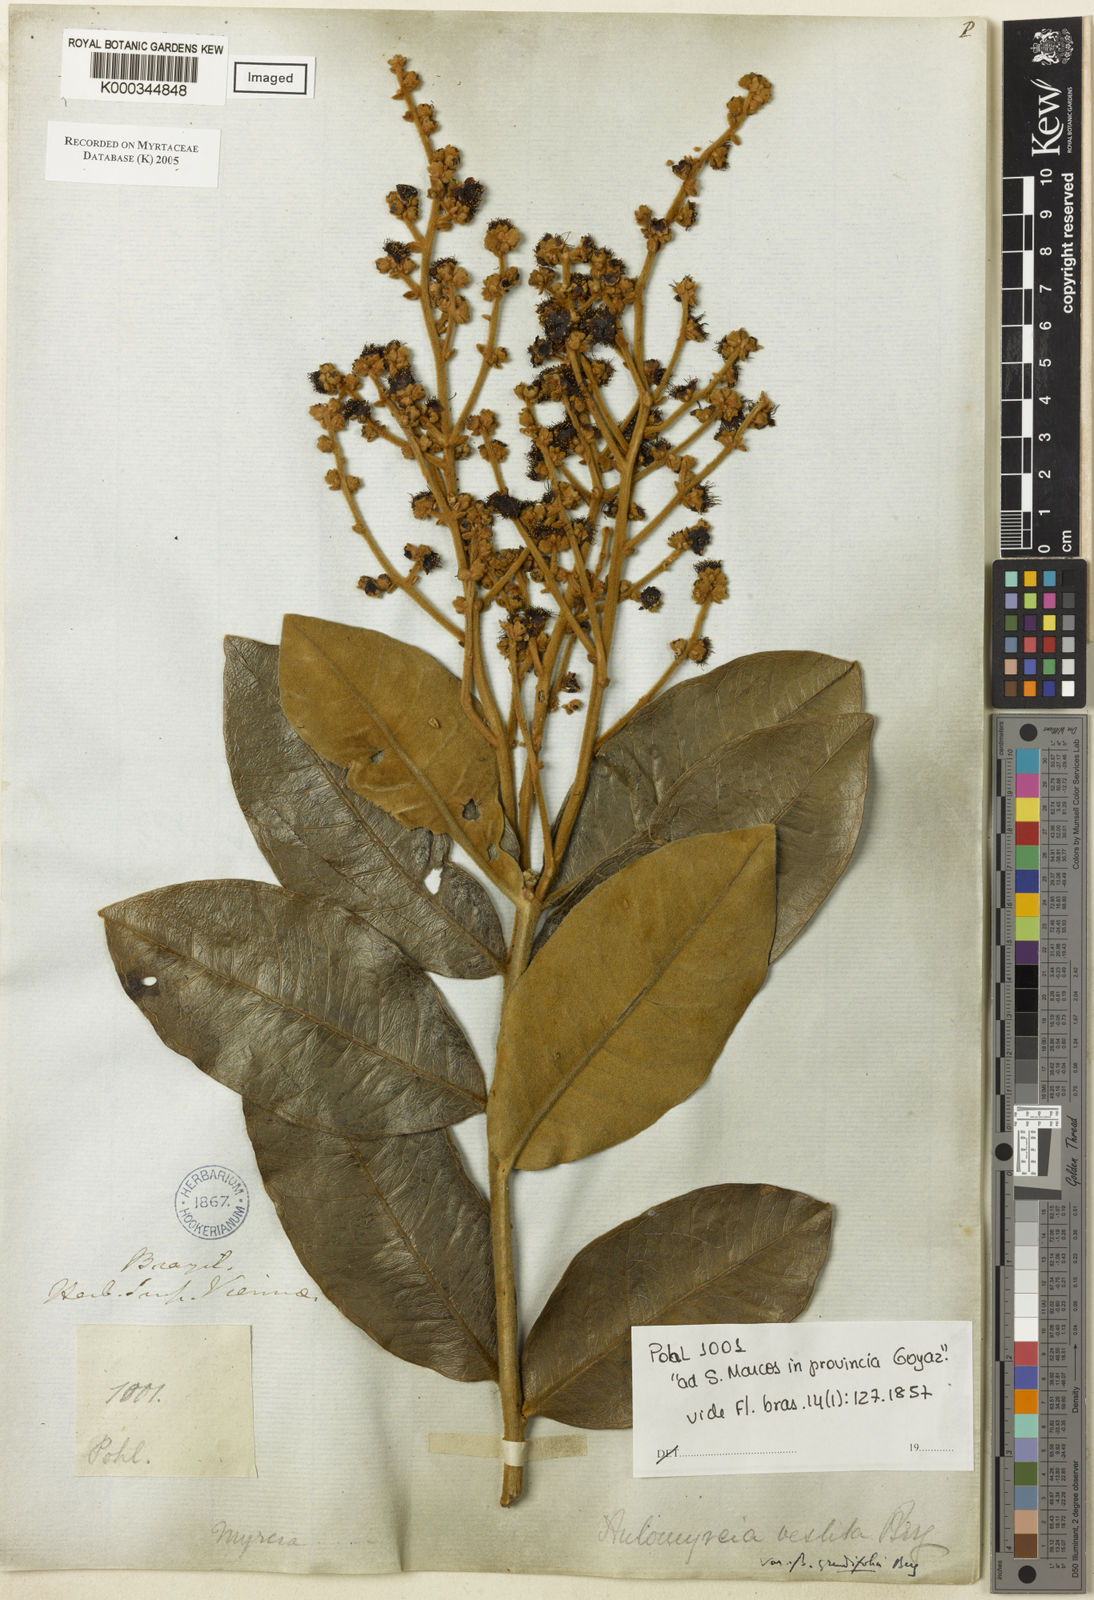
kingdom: Plantae
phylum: Tracheophyta
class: Magnoliopsida
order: Myrtales
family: Myrtaceae
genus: Myrcia
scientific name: Myrcia vestita
